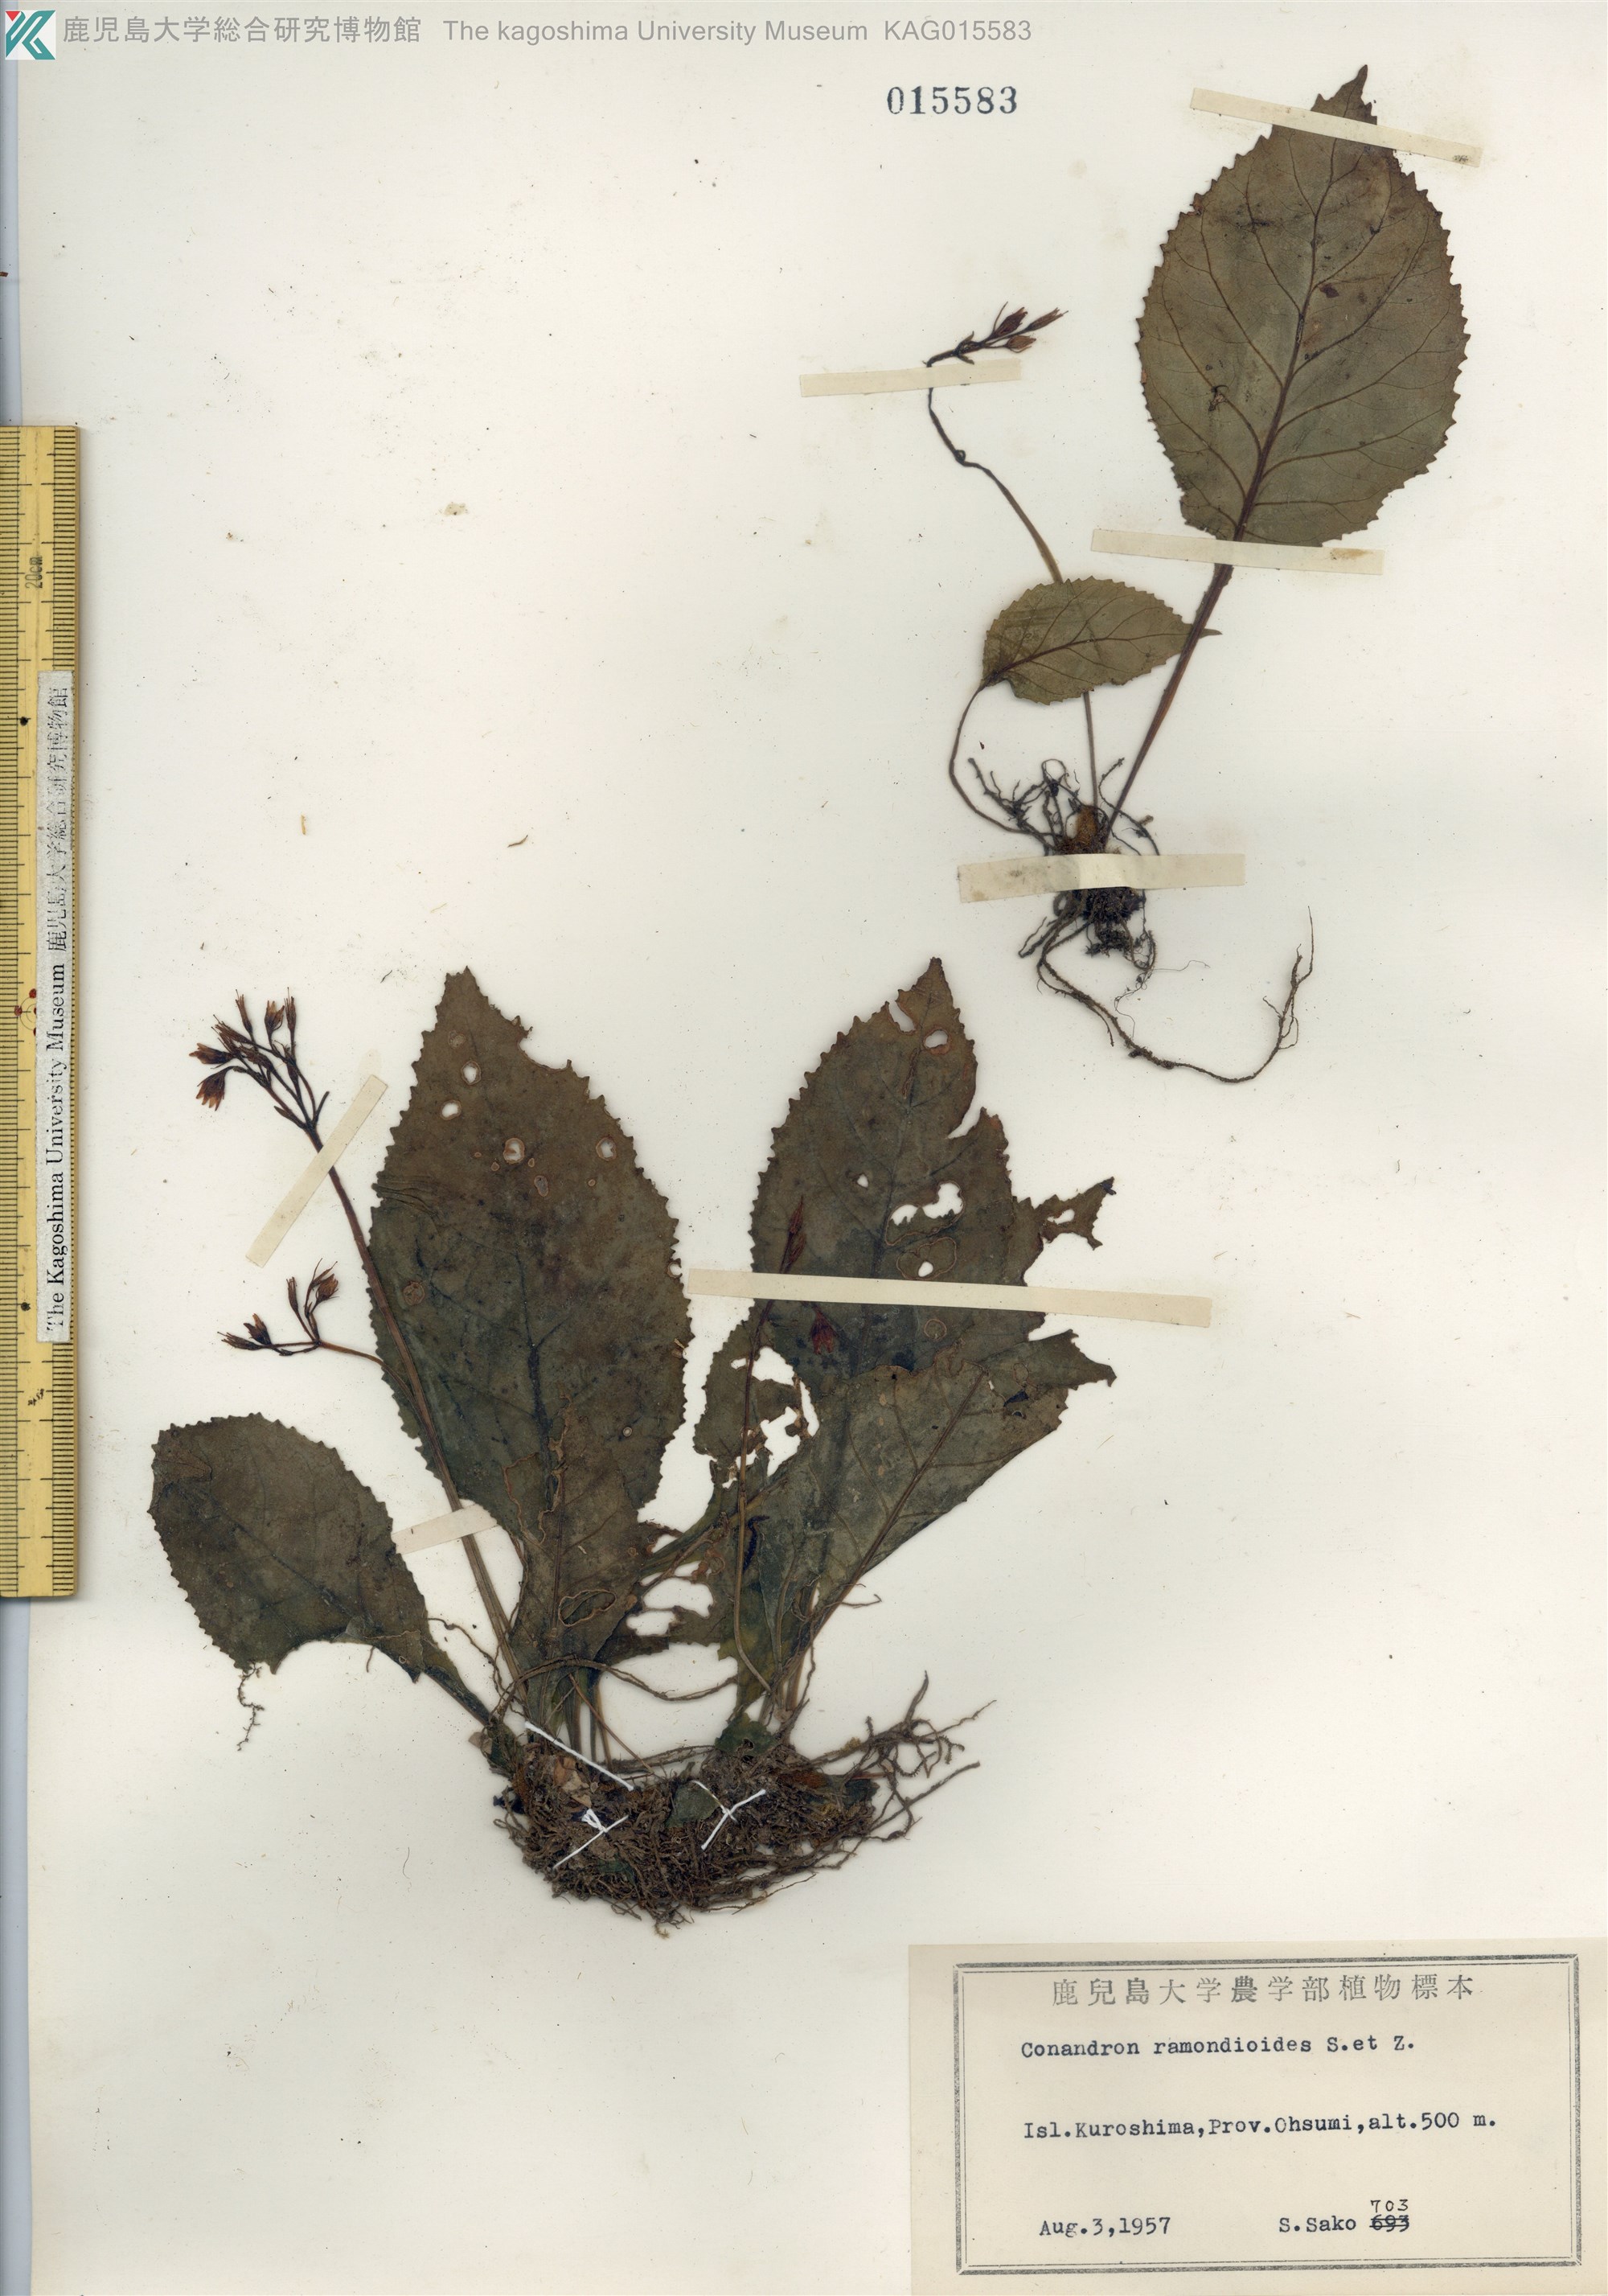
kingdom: Plantae
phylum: Tracheophyta
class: Magnoliopsida
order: Lamiales
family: Gesneriaceae
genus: Conandron
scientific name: Conandron ramondioides
